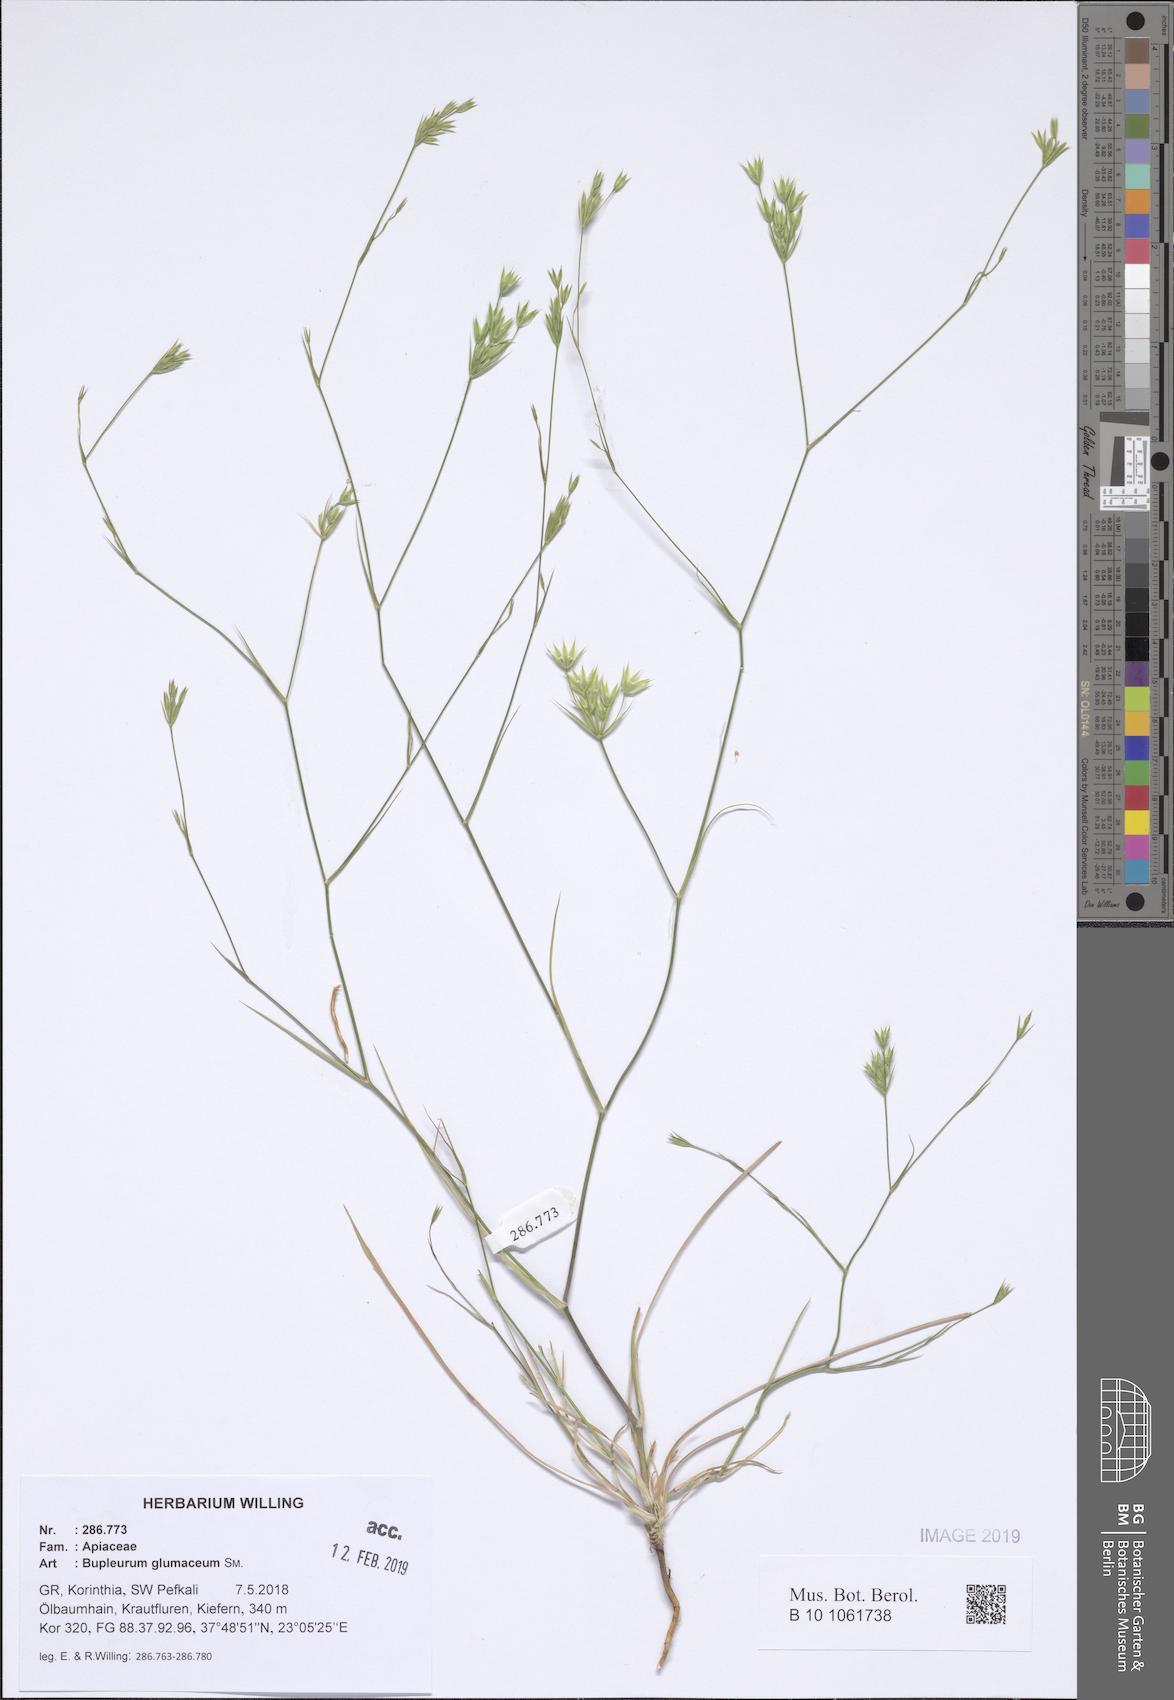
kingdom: Plantae
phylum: Tracheophyta
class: Magnoliopsida
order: Apiales
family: Apiaceae
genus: Bupleurum
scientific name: Bupleurum glumaceum
